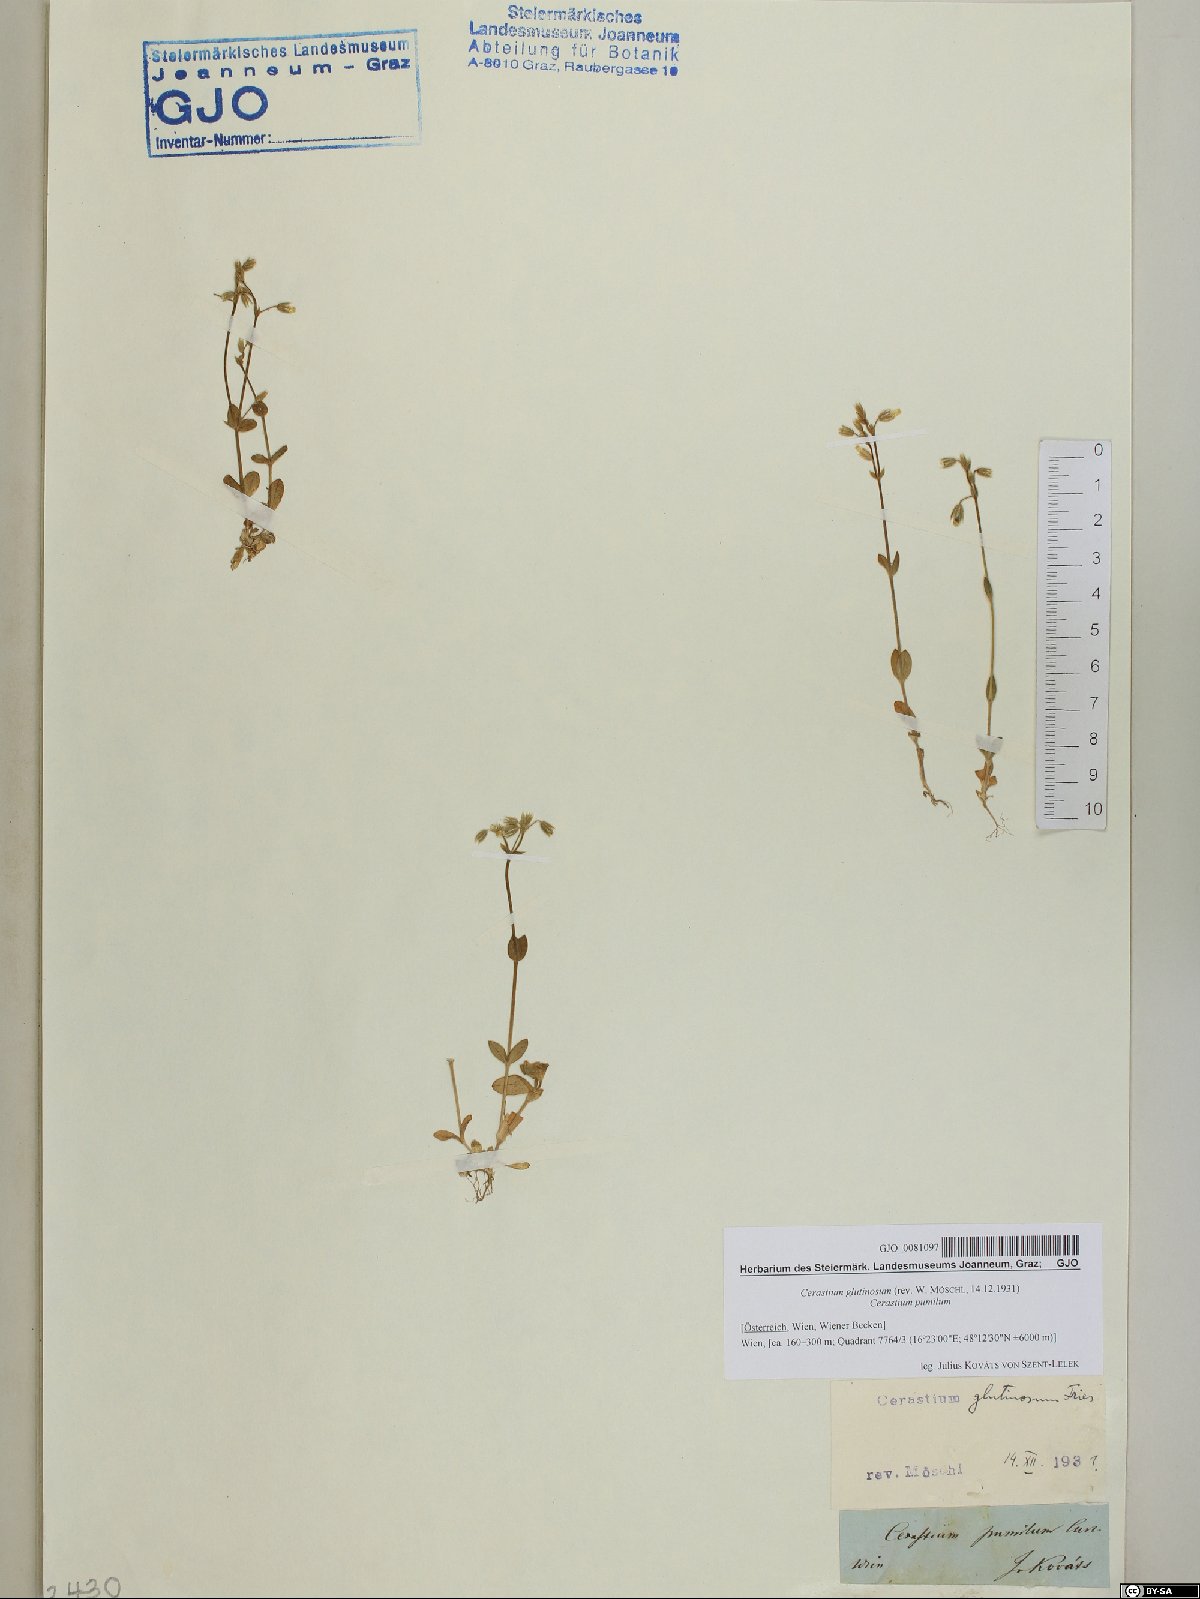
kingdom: Plantae
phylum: Tracheophyta
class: Magnoliopsida
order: Caryophyllales
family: Caryophyllaceae
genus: Cerastium
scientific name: Cerastium glutinosum
